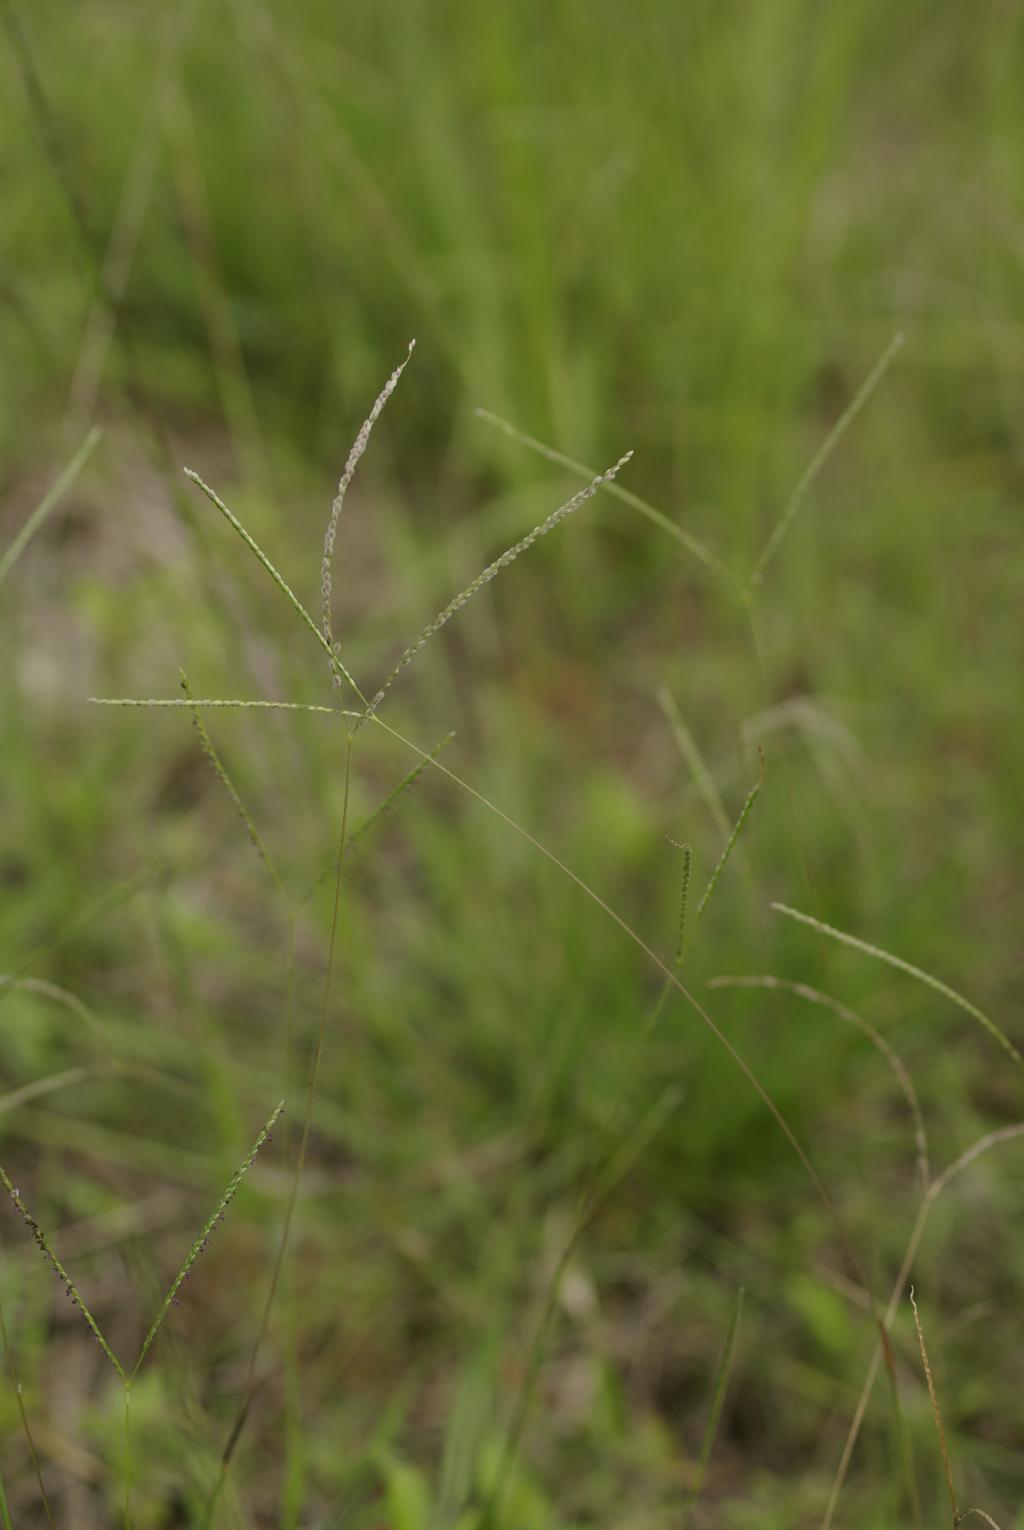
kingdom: Plantae
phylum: Tracheophyta
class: Liliopsida
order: Poales
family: Poaceae
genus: Digitaria
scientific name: Digitaria leptalea
